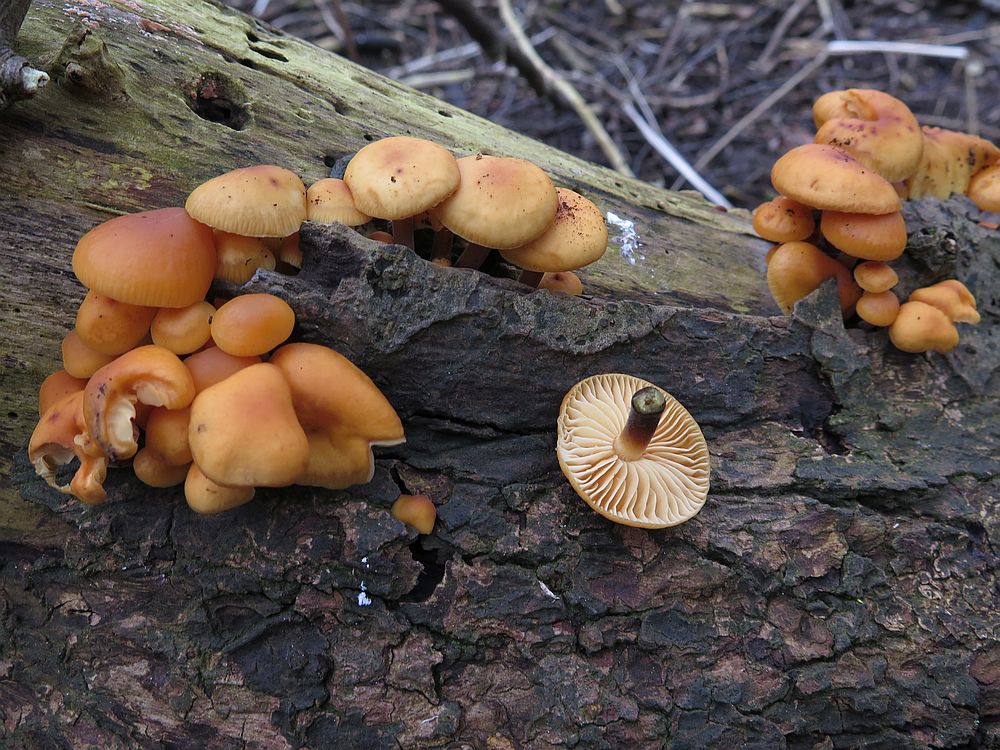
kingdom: Fungi
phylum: Basidiomycota
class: Agaricomycetes
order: Agaricales
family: Physalacriaceae
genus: Flammulina
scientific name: Flammulina elastica
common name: pile-fløjlsfod
